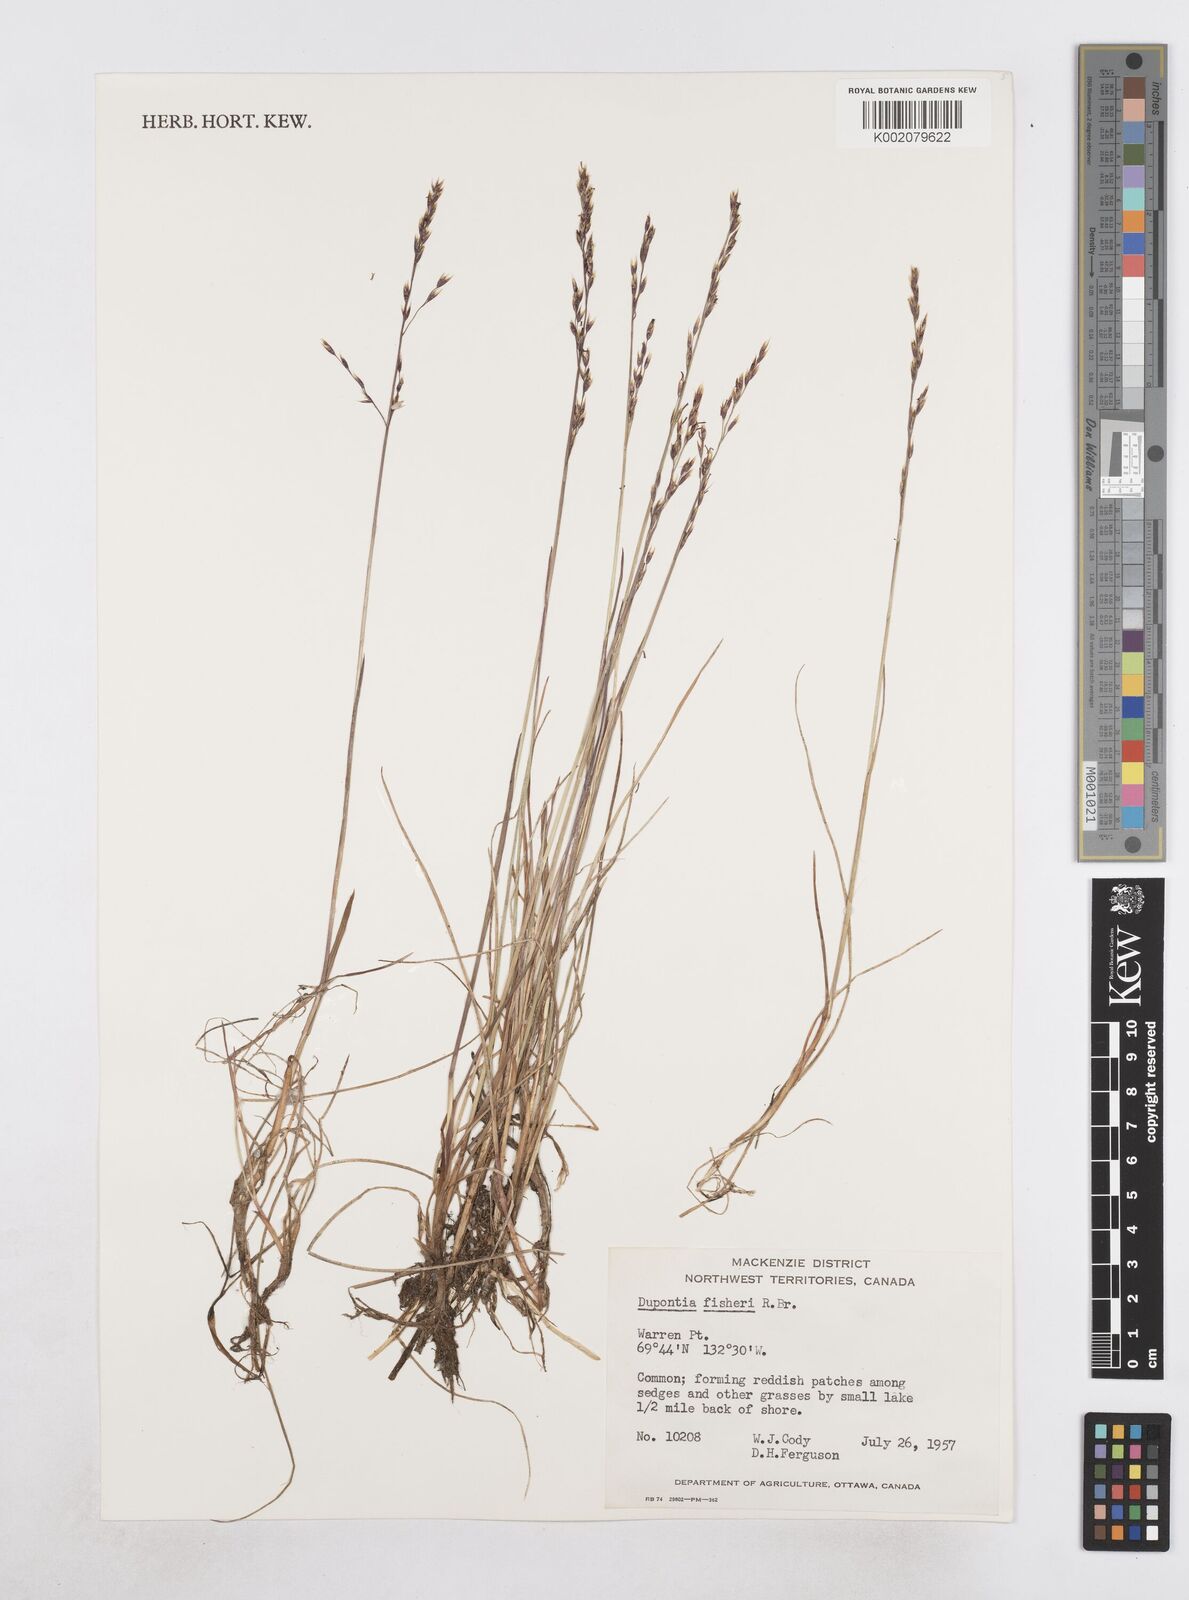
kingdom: Plantae
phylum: Tracheophyta
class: Liliopsida
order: Poales
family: Poaceae
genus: Dupontia
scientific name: Dupontia fisheri
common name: Tundra grass
